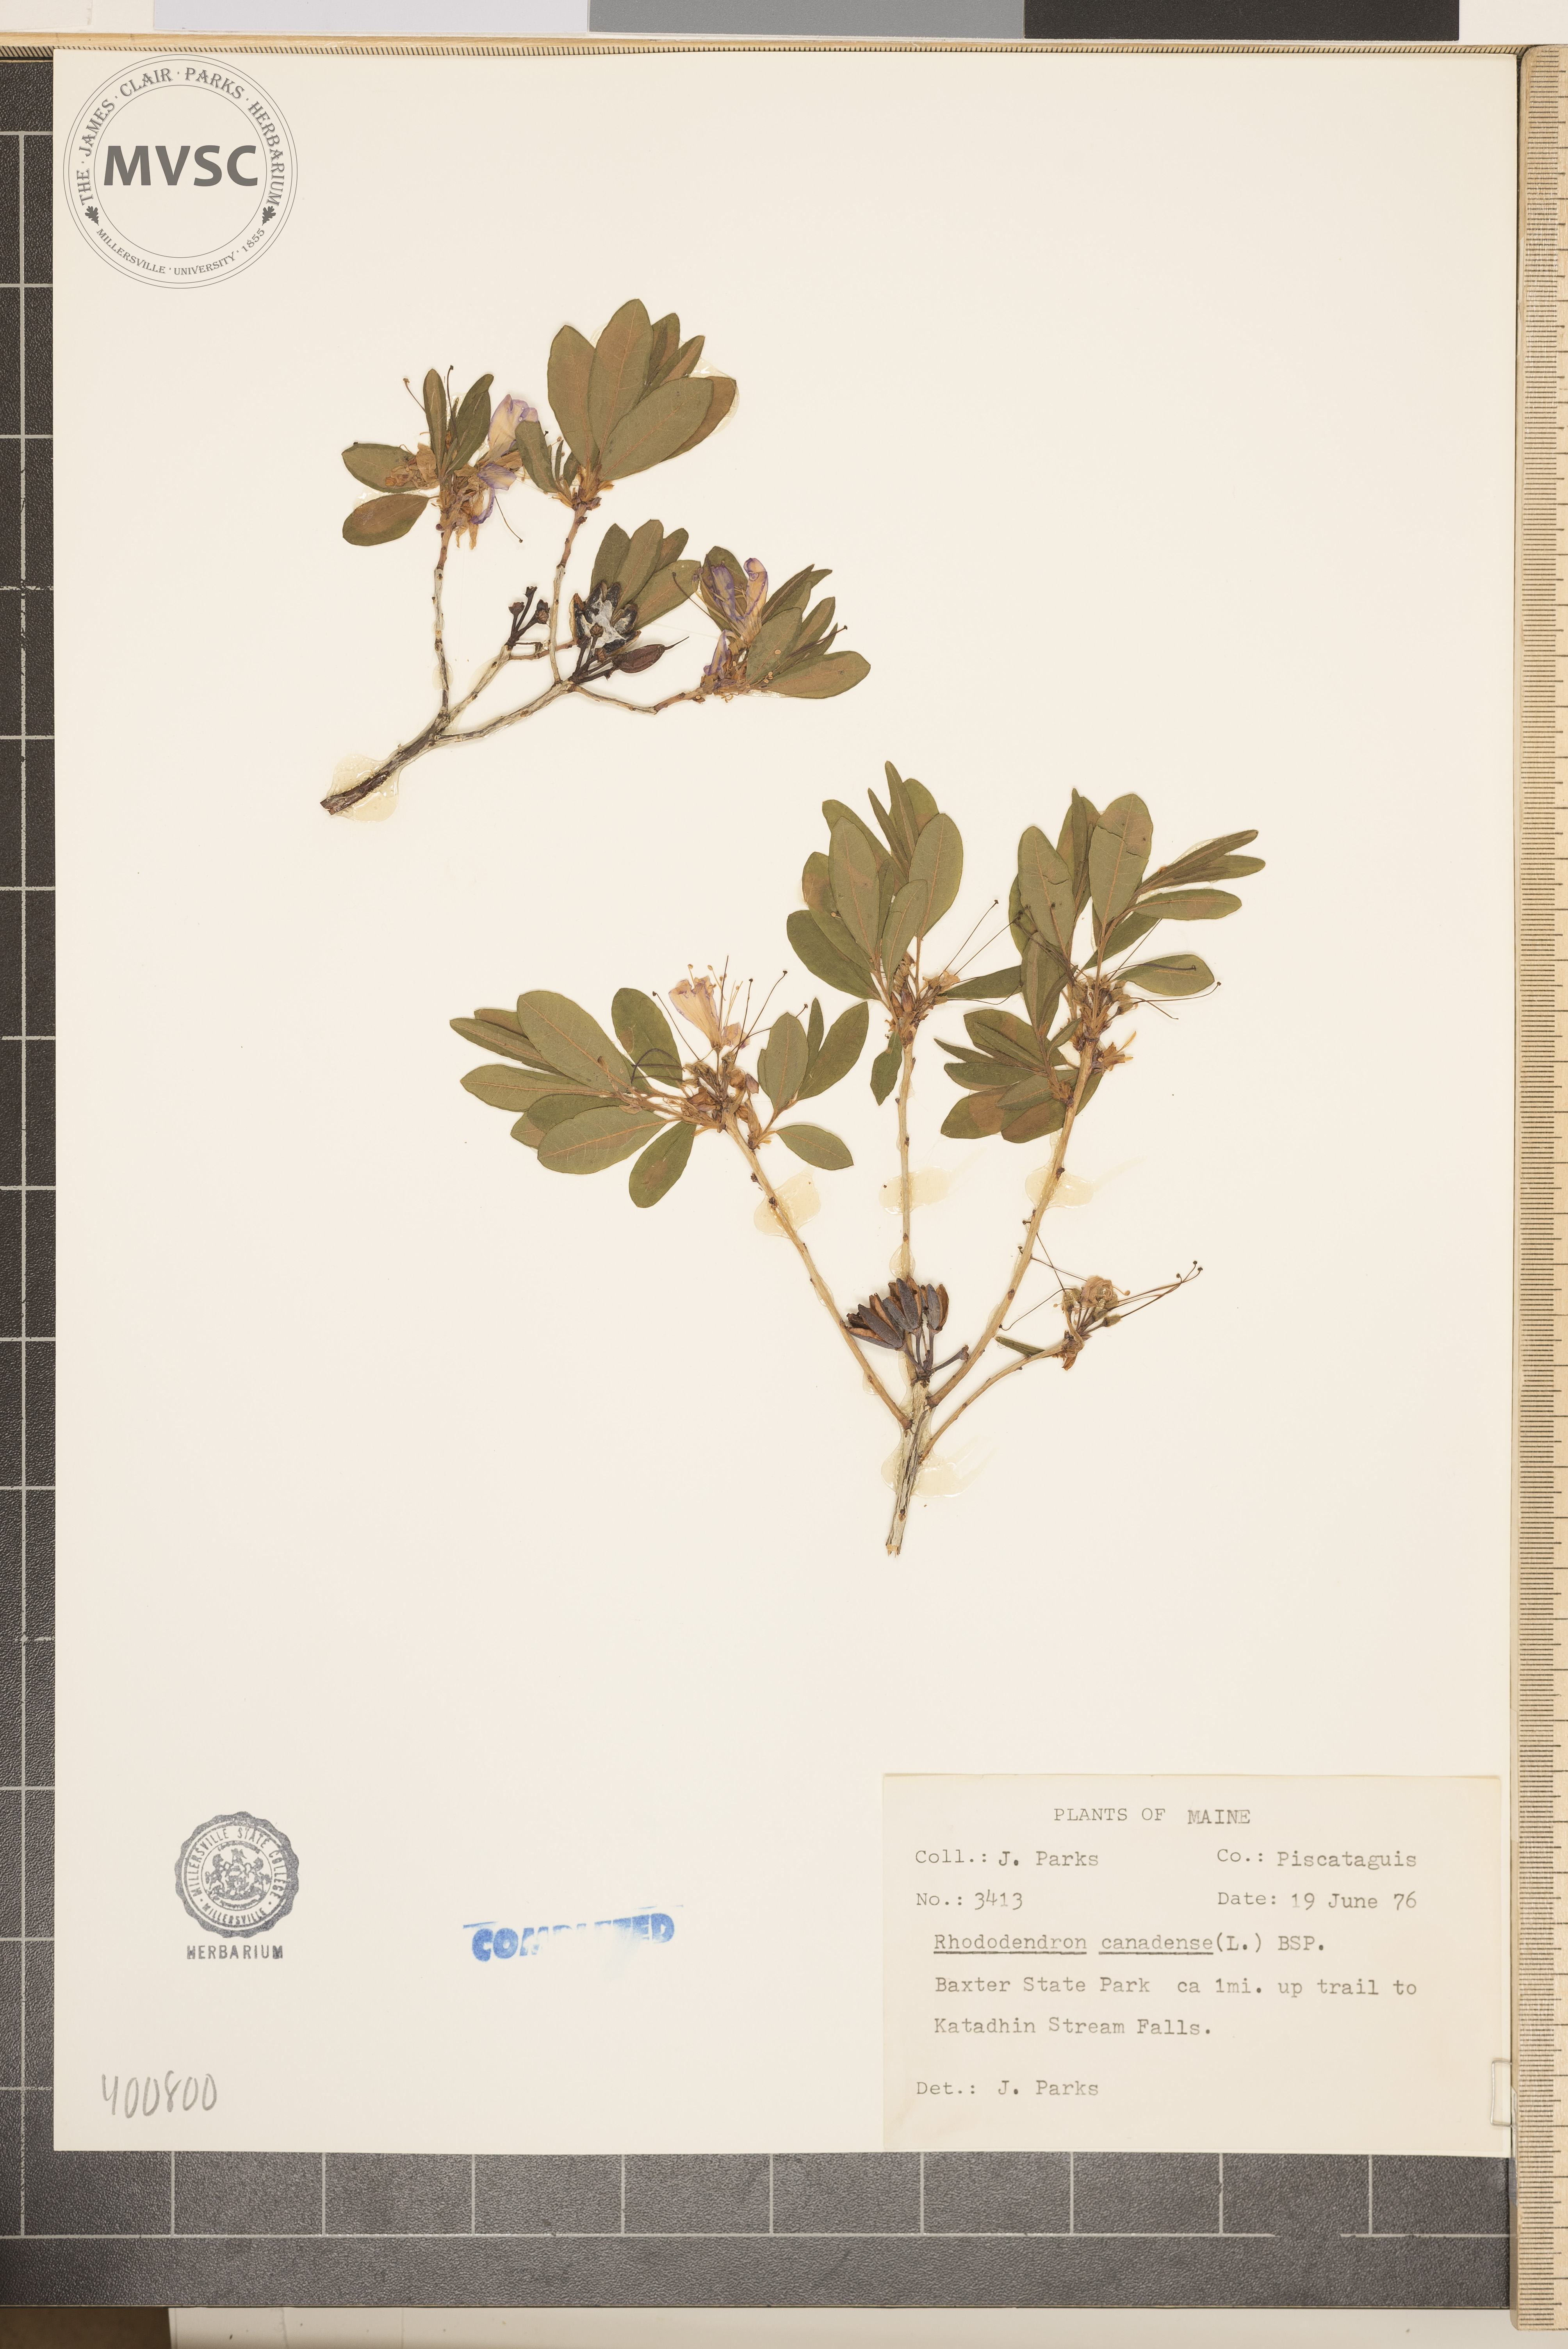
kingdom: Plantae
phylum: Tracheophyta
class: Magnoliopsida
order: Ericales
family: Ericaceae
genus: Rhododendron
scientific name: Rhododendron canadense
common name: azalea
